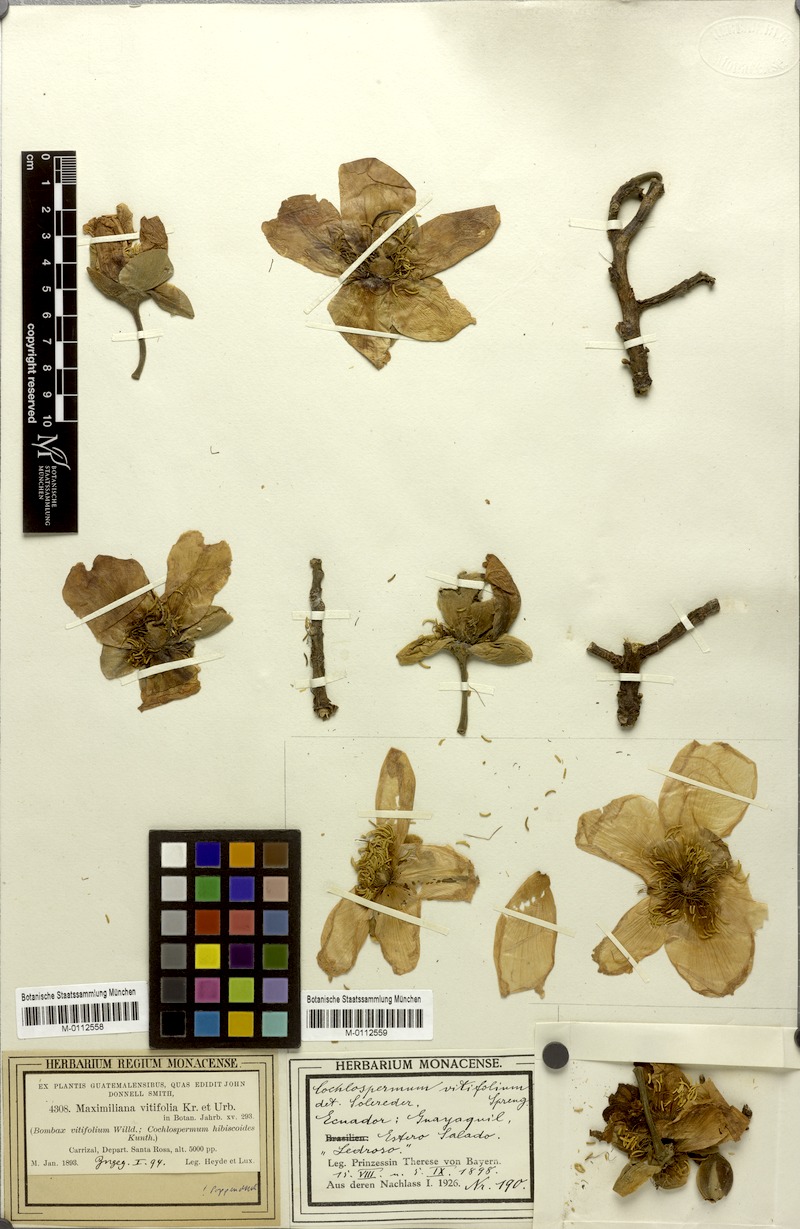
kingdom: Plantae
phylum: Tracheophyta
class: Magnoliopsida
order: Malvales
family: Cochlospermaceae
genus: Cochlospermum
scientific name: Cochlospermum vitifolium
